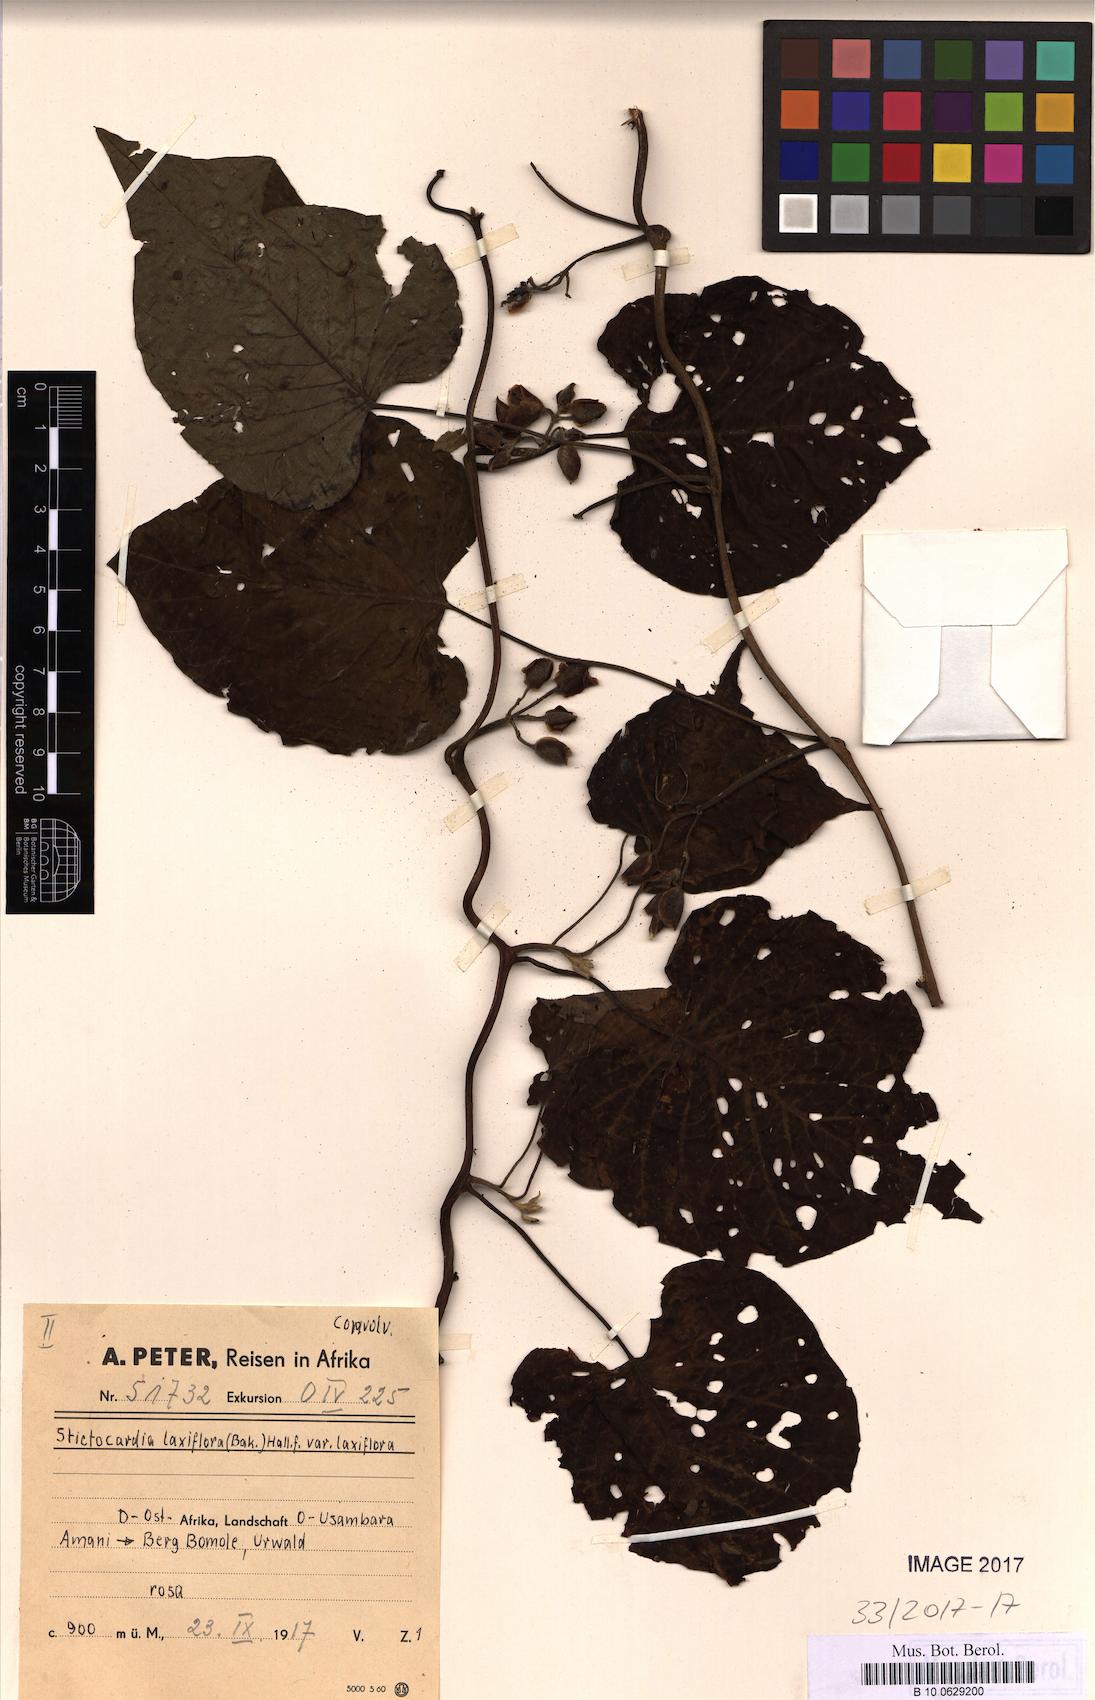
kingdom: Plantae
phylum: Tracheophyta
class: Magnoliopsida
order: Solanales
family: Convolvulaceae
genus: Stictocardia
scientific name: Stictocardia laxiflora
